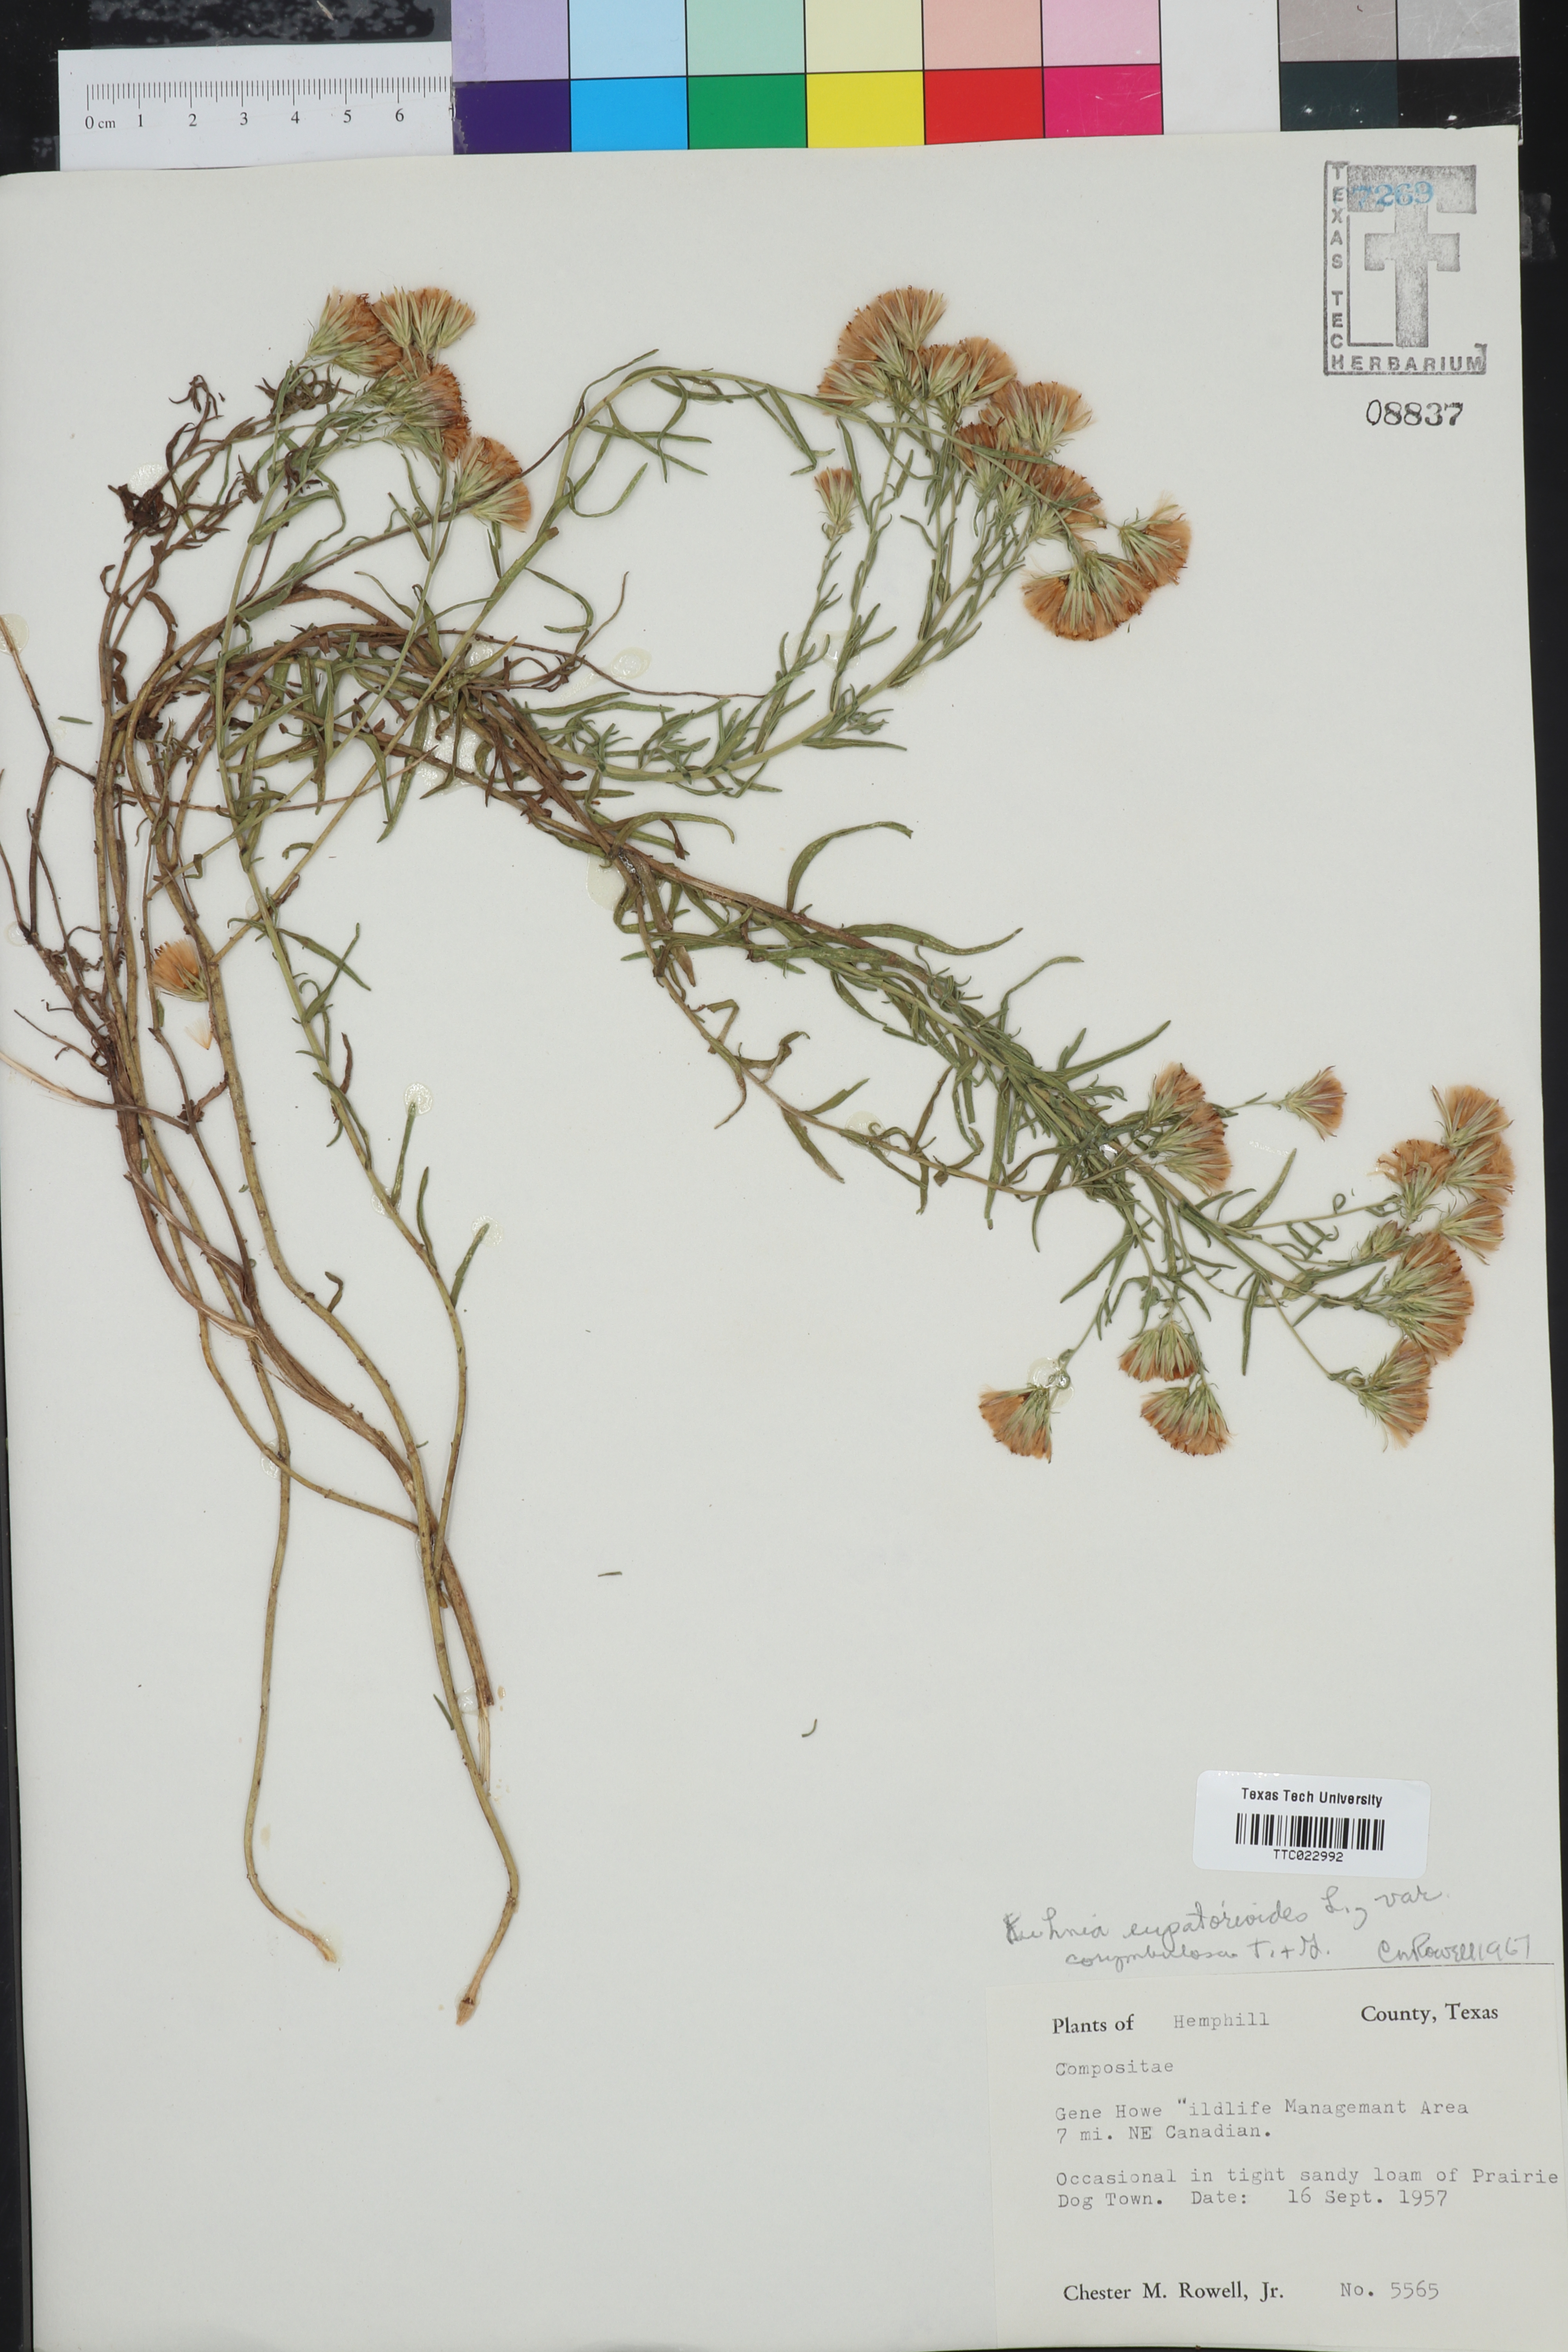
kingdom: Plantae
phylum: Tracheophyta
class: Magnoliopsida
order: Asterales
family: Asteraceae
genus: Brickellia
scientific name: Brickellia suaveolens
